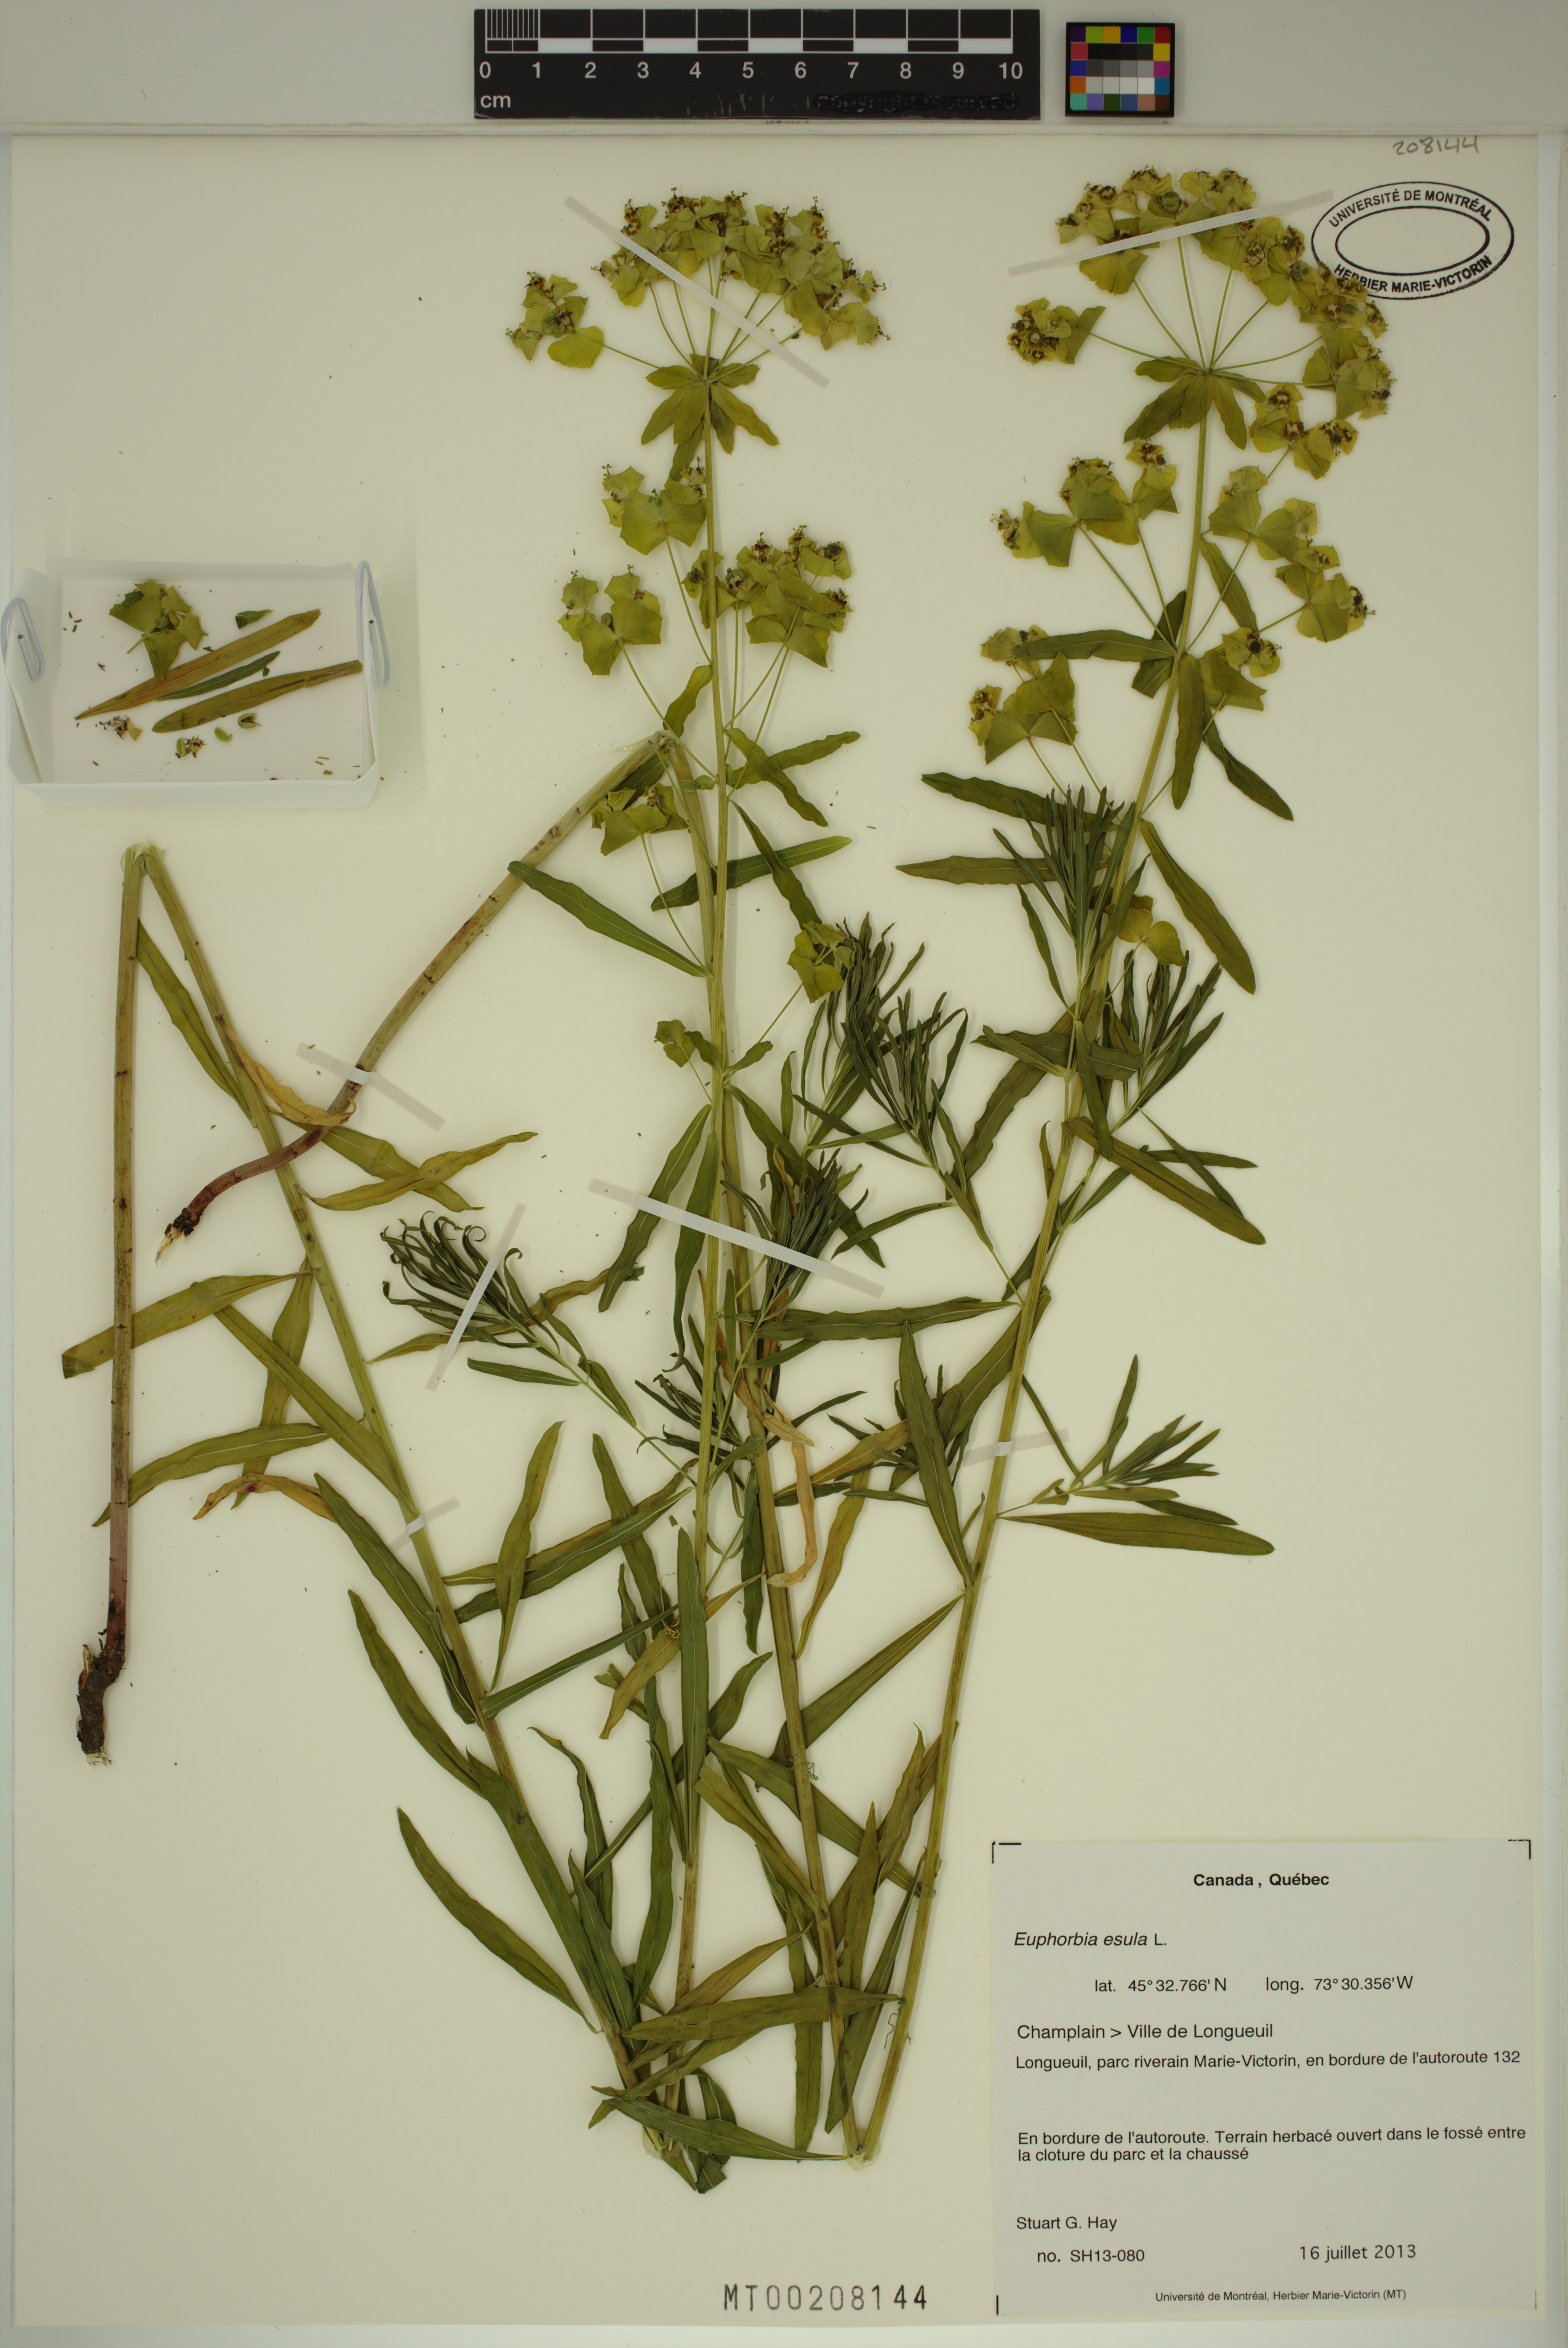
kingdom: Plantae
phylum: Tracheophyta
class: Magnoliopsida
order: Malpighiales
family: Euphorbiaceae
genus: Euphorbia
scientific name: Euphorbia esula
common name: Leafy spurge
